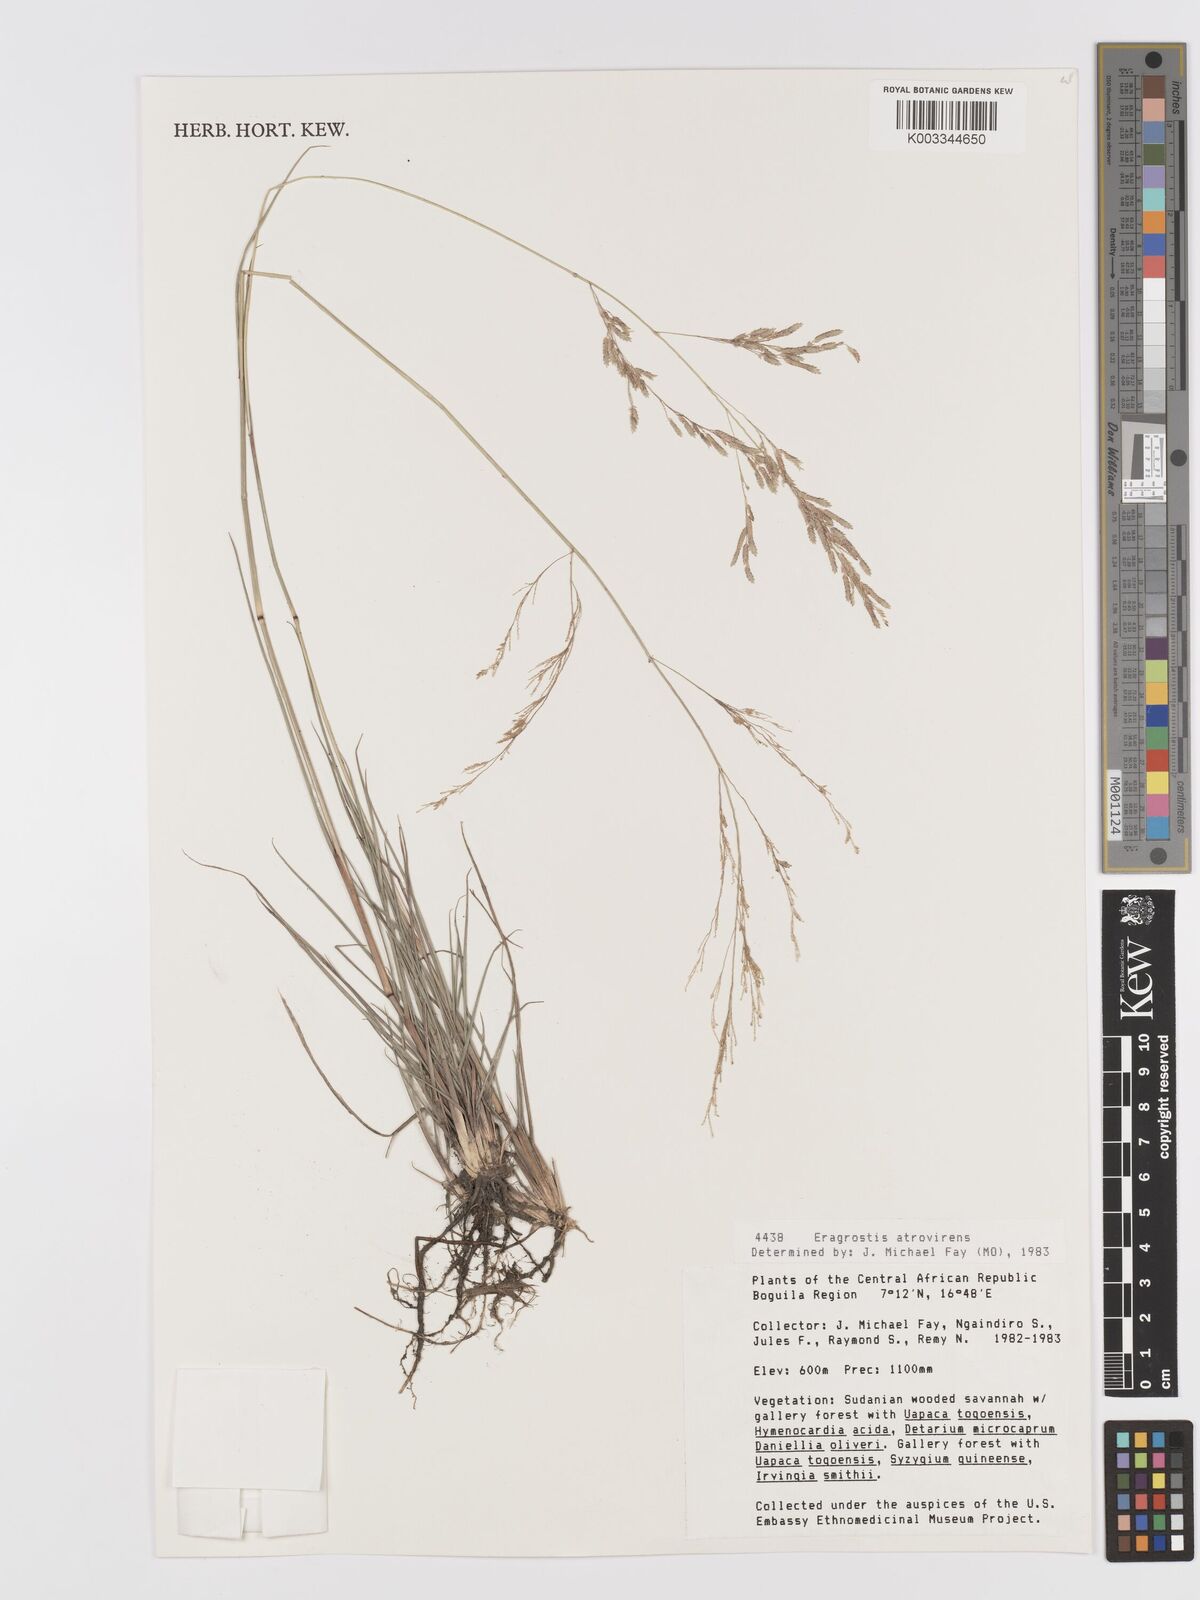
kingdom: Plantae
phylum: Tracheophyta
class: Liliopsida
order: Poales
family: Poaceae
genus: Eragrostis
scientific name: Eragrostis atrovirens
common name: Thalia lovegrass
